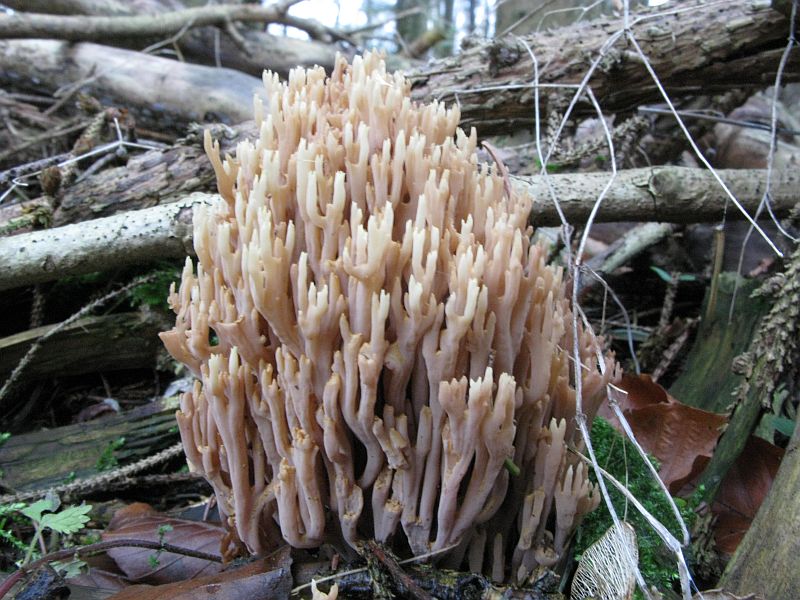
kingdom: Fungi
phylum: Basidiomycota
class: Agaricomycetes
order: Gomphales
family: Gomphaceae
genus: Ramaria
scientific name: Ramaria stricta
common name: rank koralsvamp
